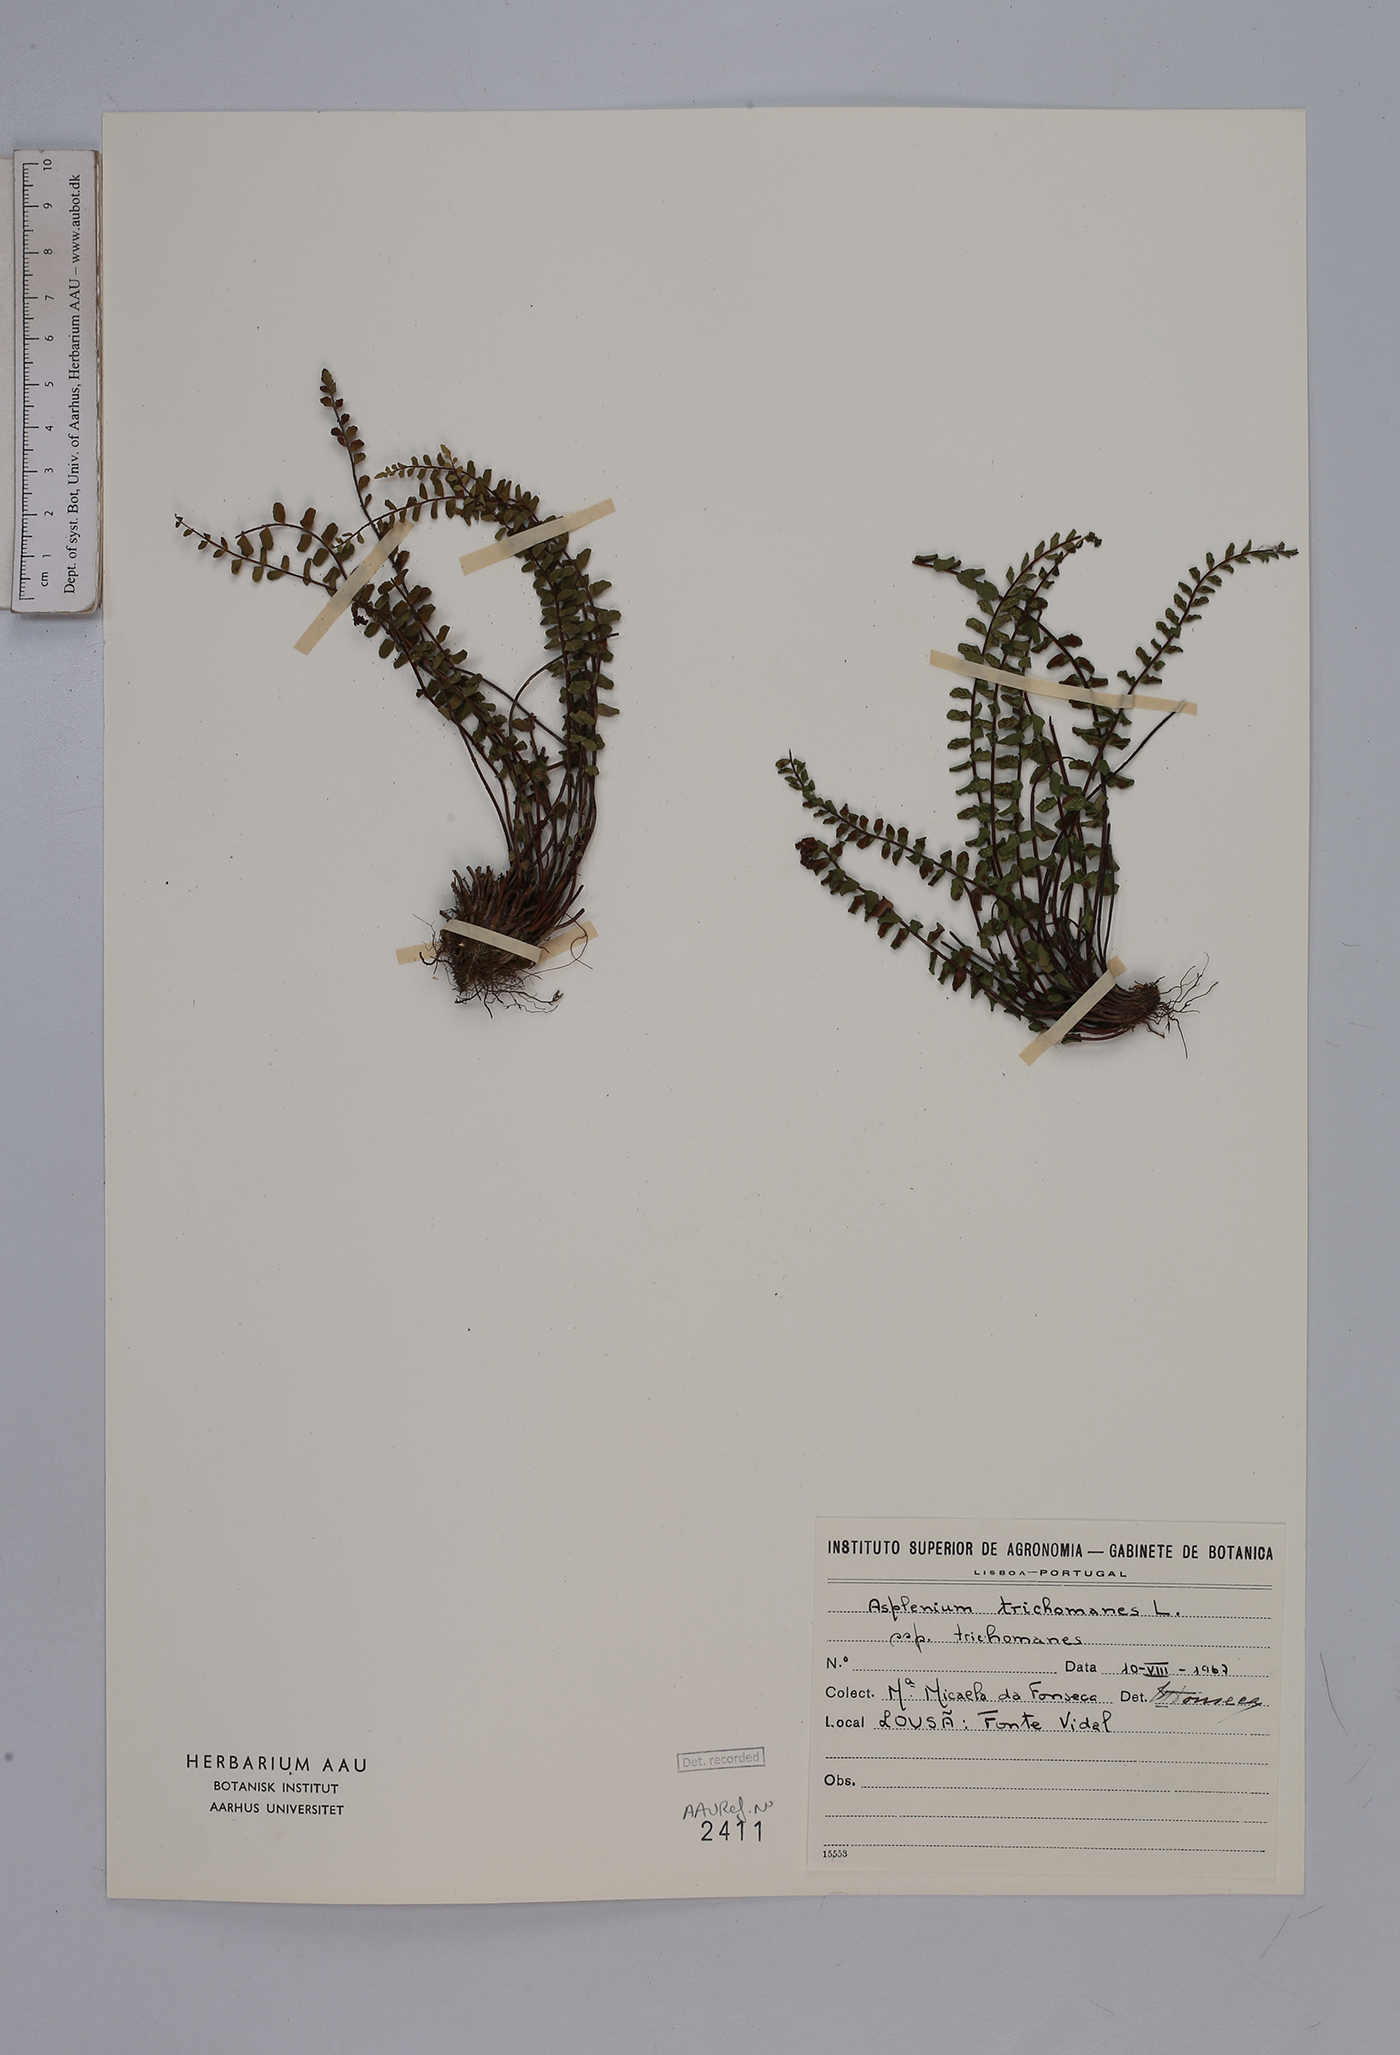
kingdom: Plantae
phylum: Tracheophyta
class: Polypodiopsida
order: Polypodiales
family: Aspleniaceae
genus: Asplenium
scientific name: Asplenium trichomanes
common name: Maidenhair spleenwort
